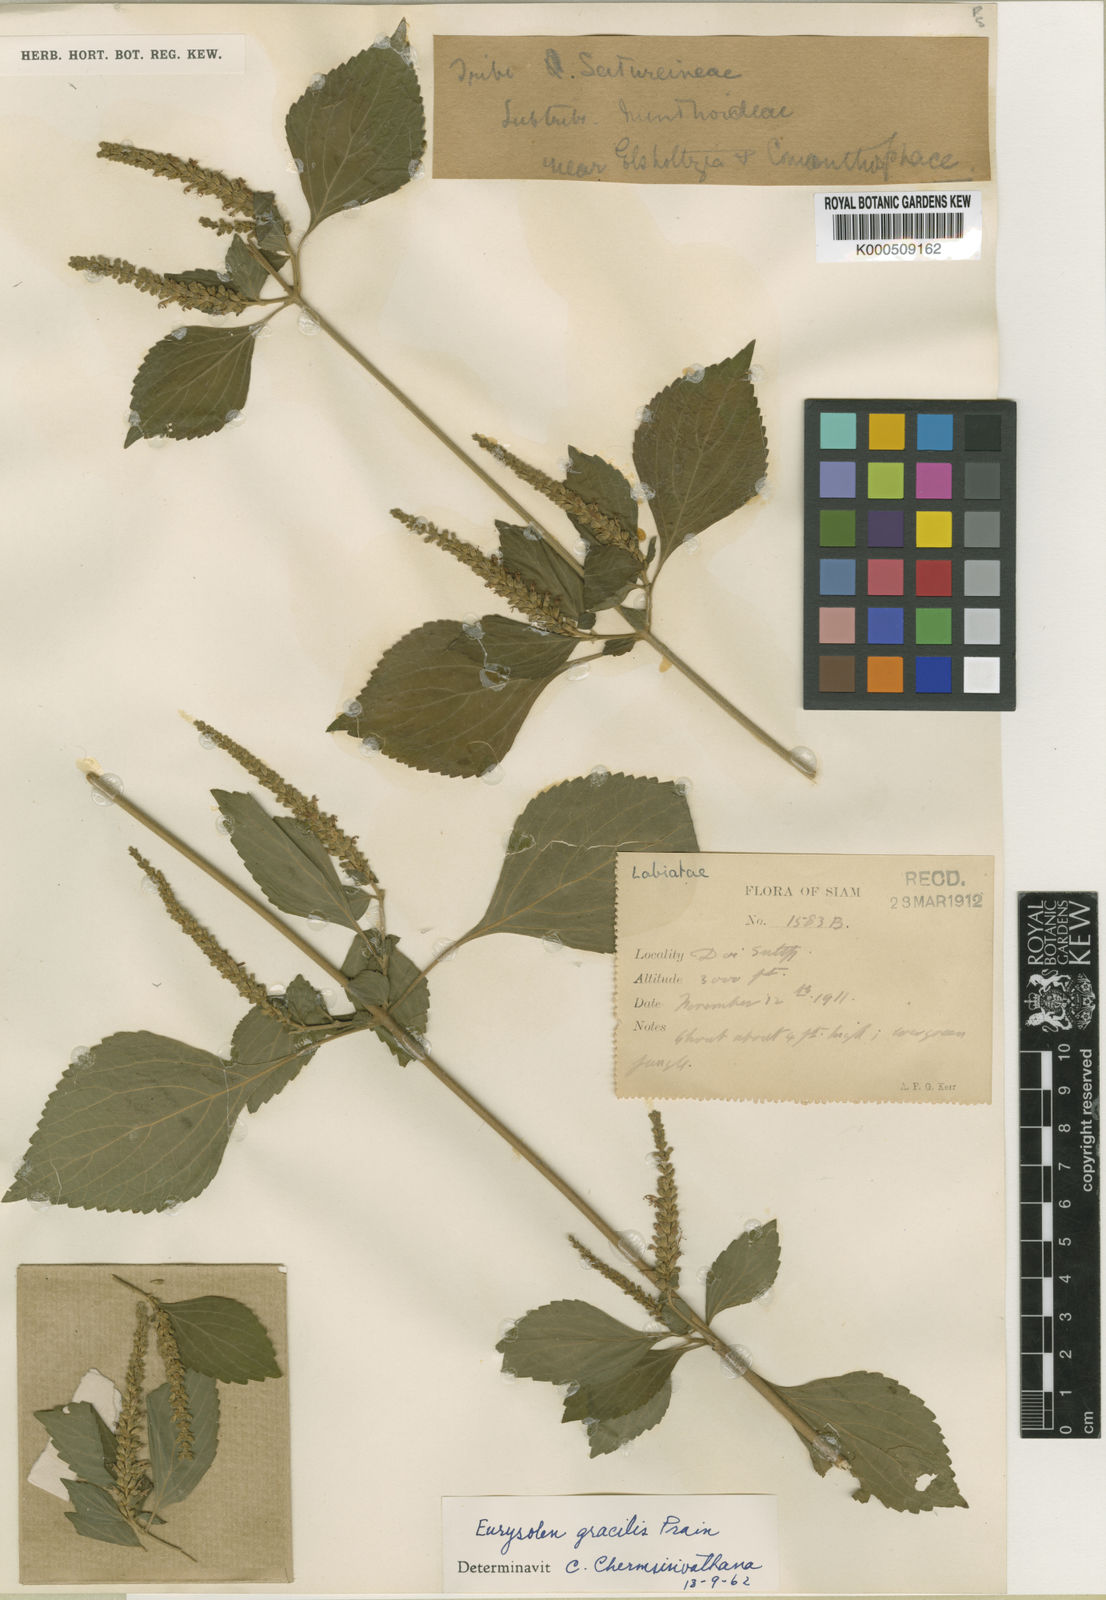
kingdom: Plantae
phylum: Tracheophyta
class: Magnoliopsida
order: Lamiales
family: Lamiaceae
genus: Eurysolen
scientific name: Eurysolen gracilis
